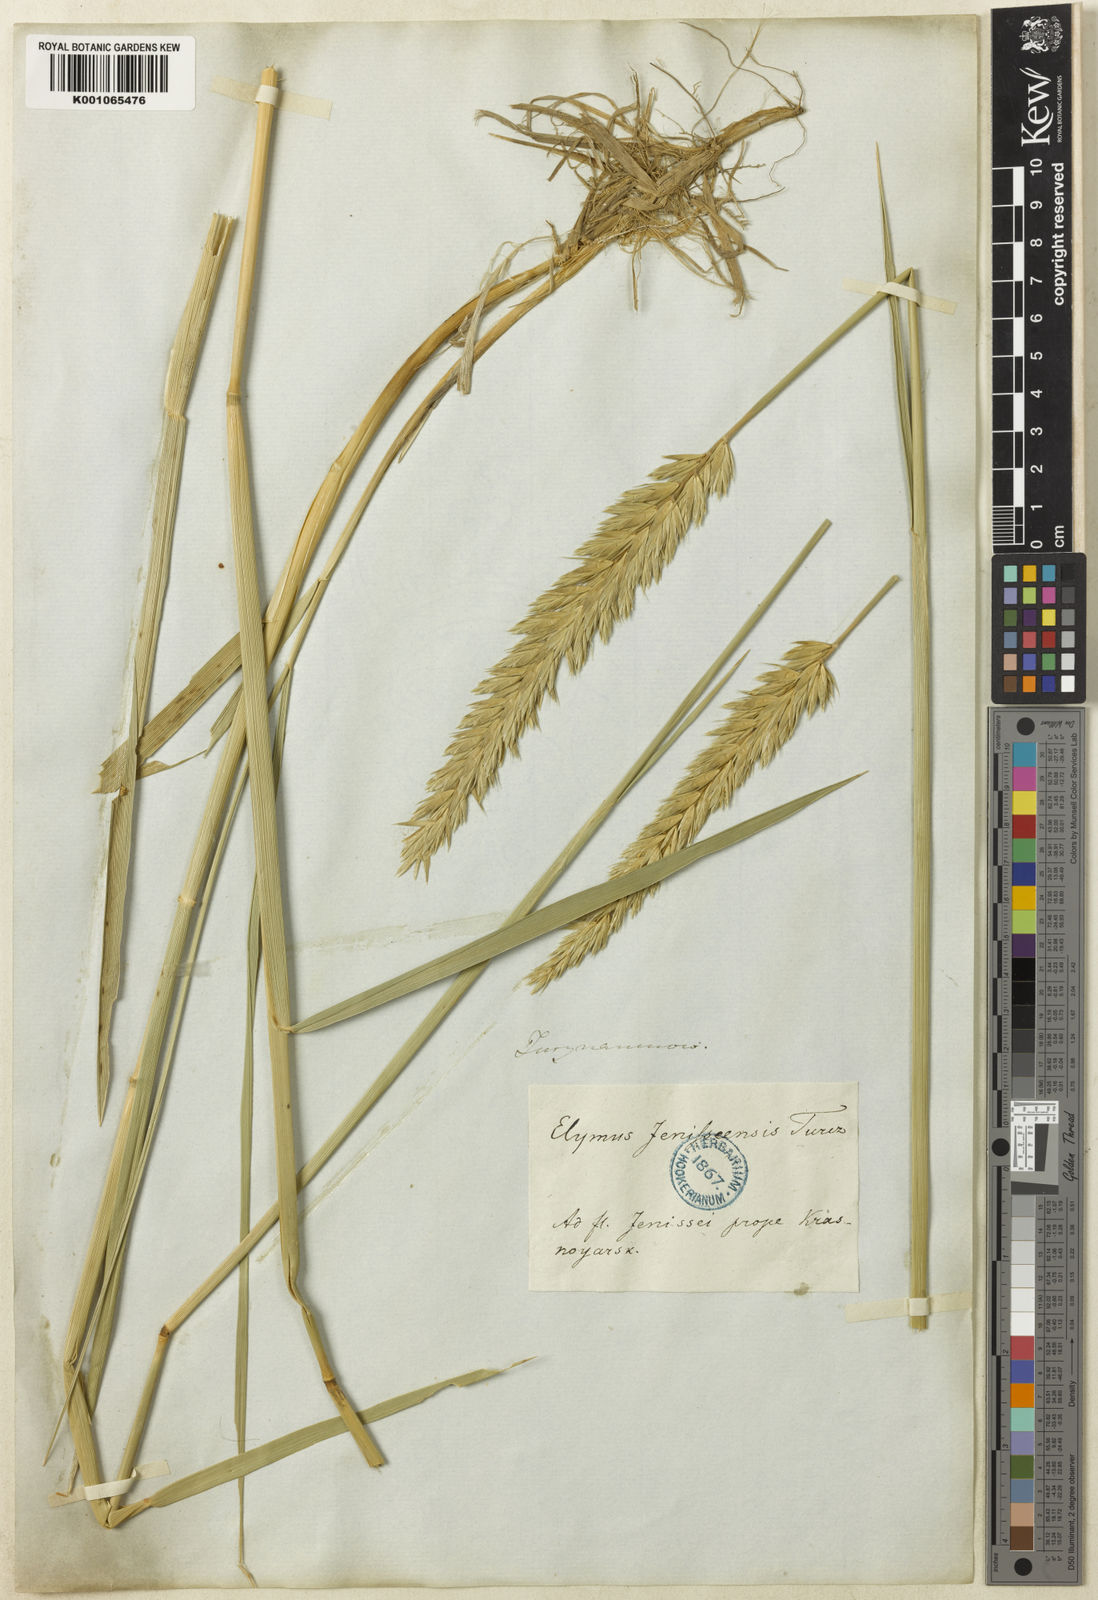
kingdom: Plantae
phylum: Tracheophyta
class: Liliopsida
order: Poales
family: Poaceae
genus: Leymus
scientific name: Leymus angustus
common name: Altai wildrye
